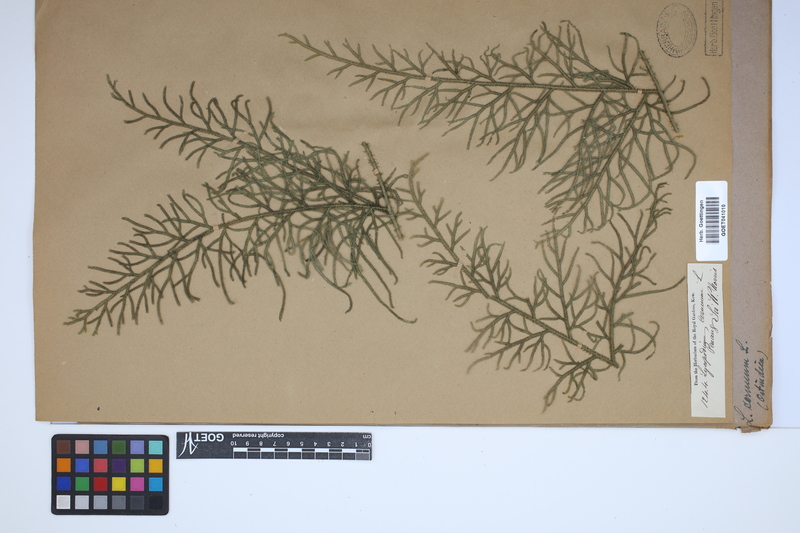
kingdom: Plantae
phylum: Tracheophyta
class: Lycopodiopsida
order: Lycopodiales
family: Lycopodiaceae
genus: Palhinhaea
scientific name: Palhinhaea cernua
